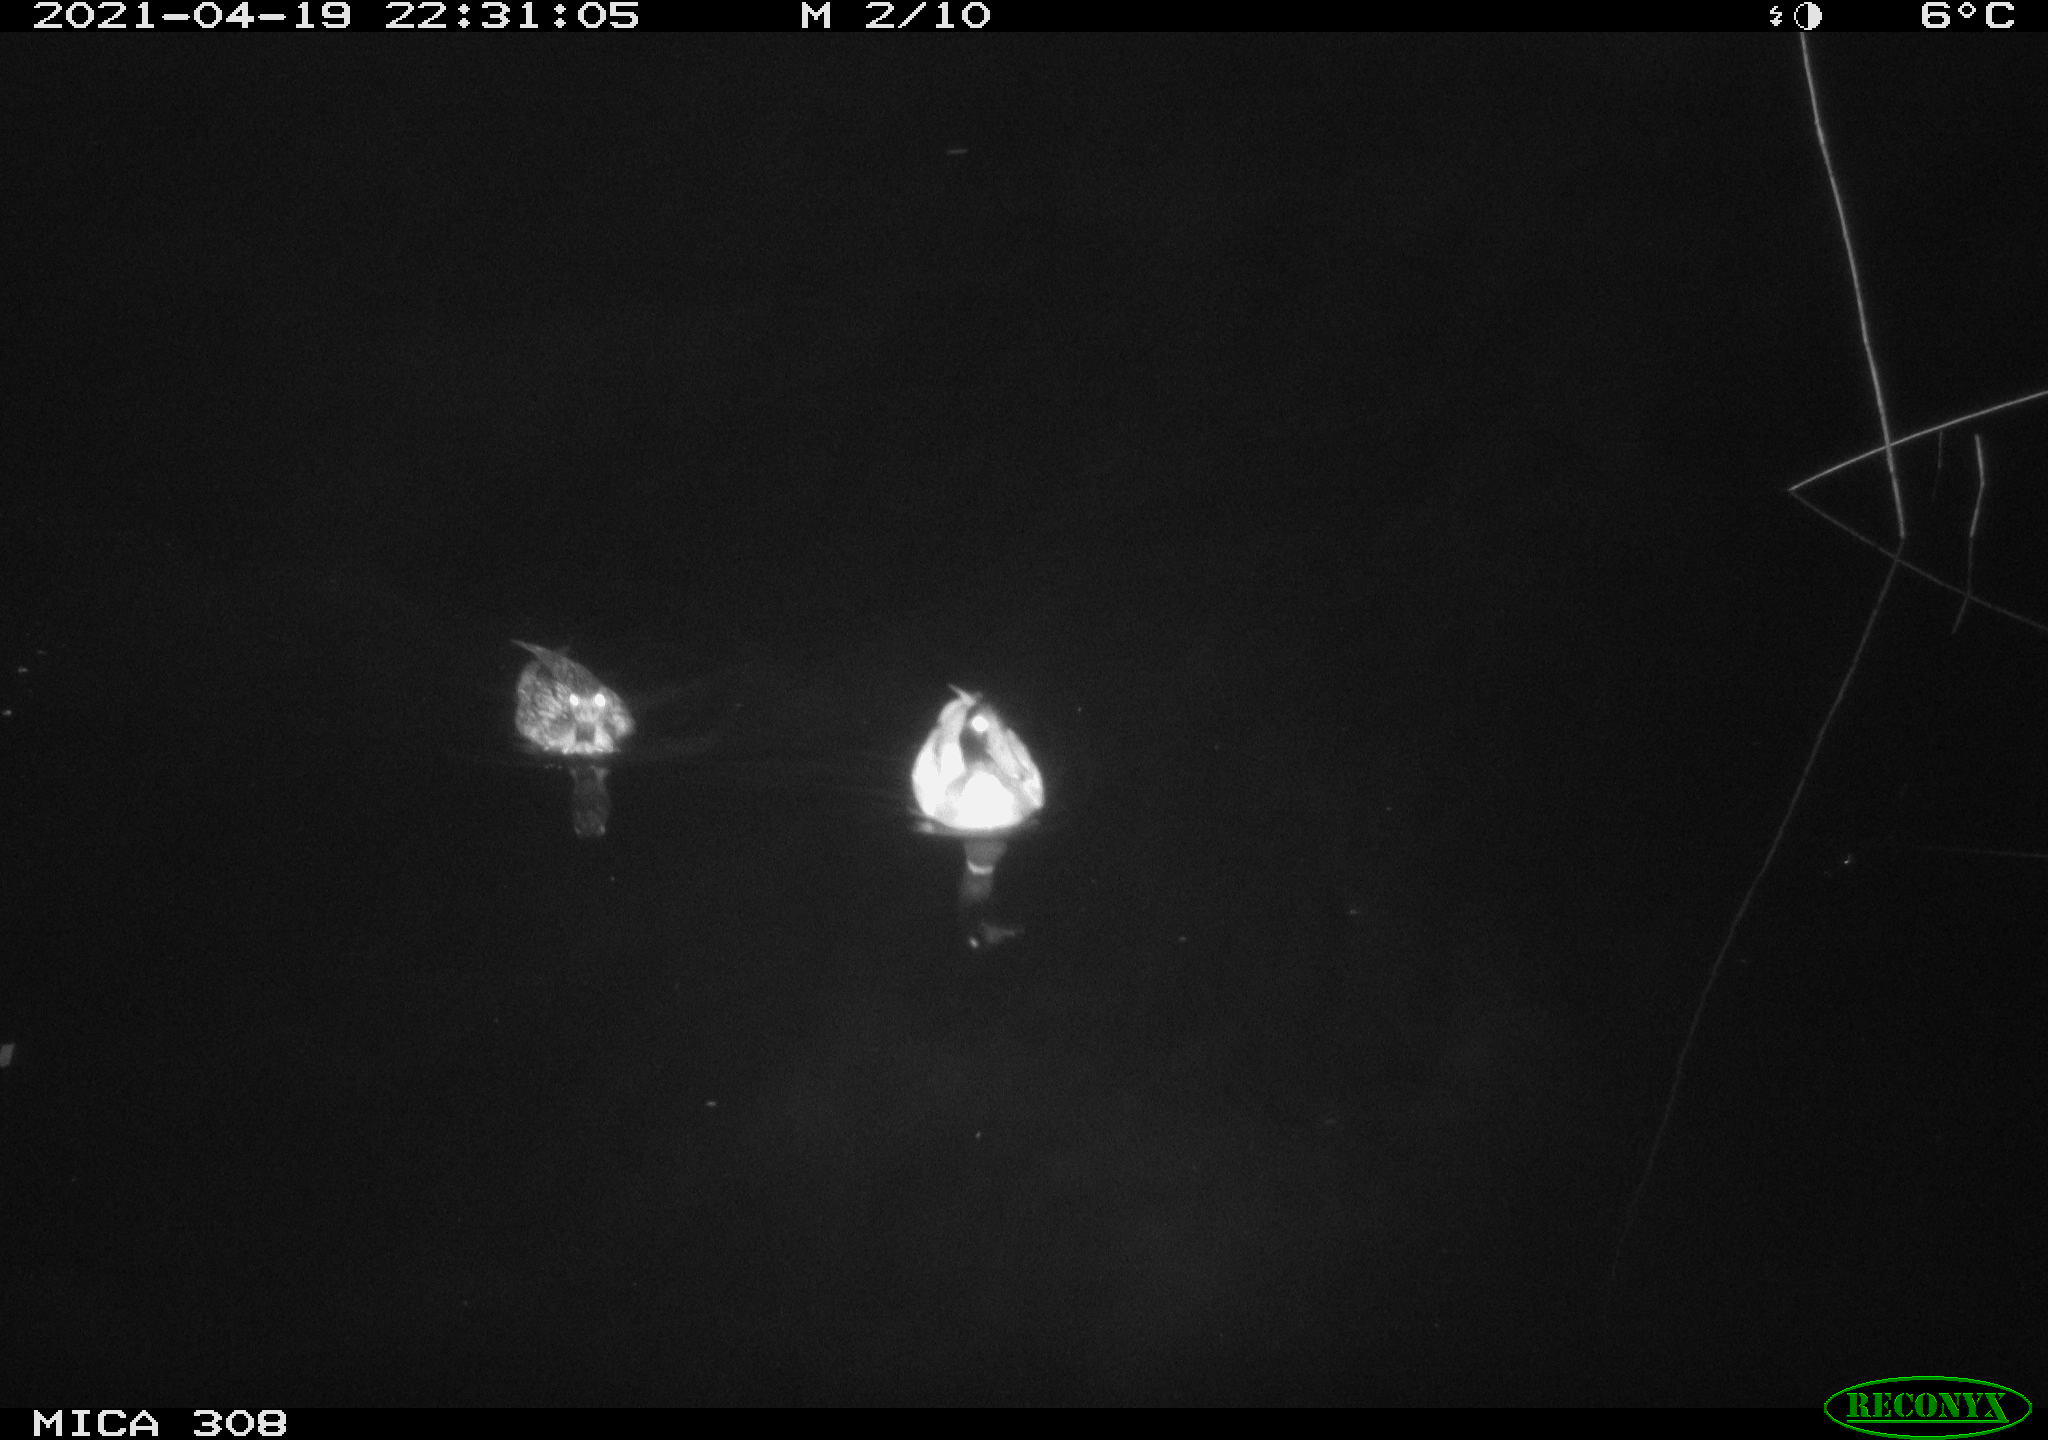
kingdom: Animalia
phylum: Chordata
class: Aves
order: Anseriformes
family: Anatidae
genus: Anas
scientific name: Anas platyrhynchos
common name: Mallard
